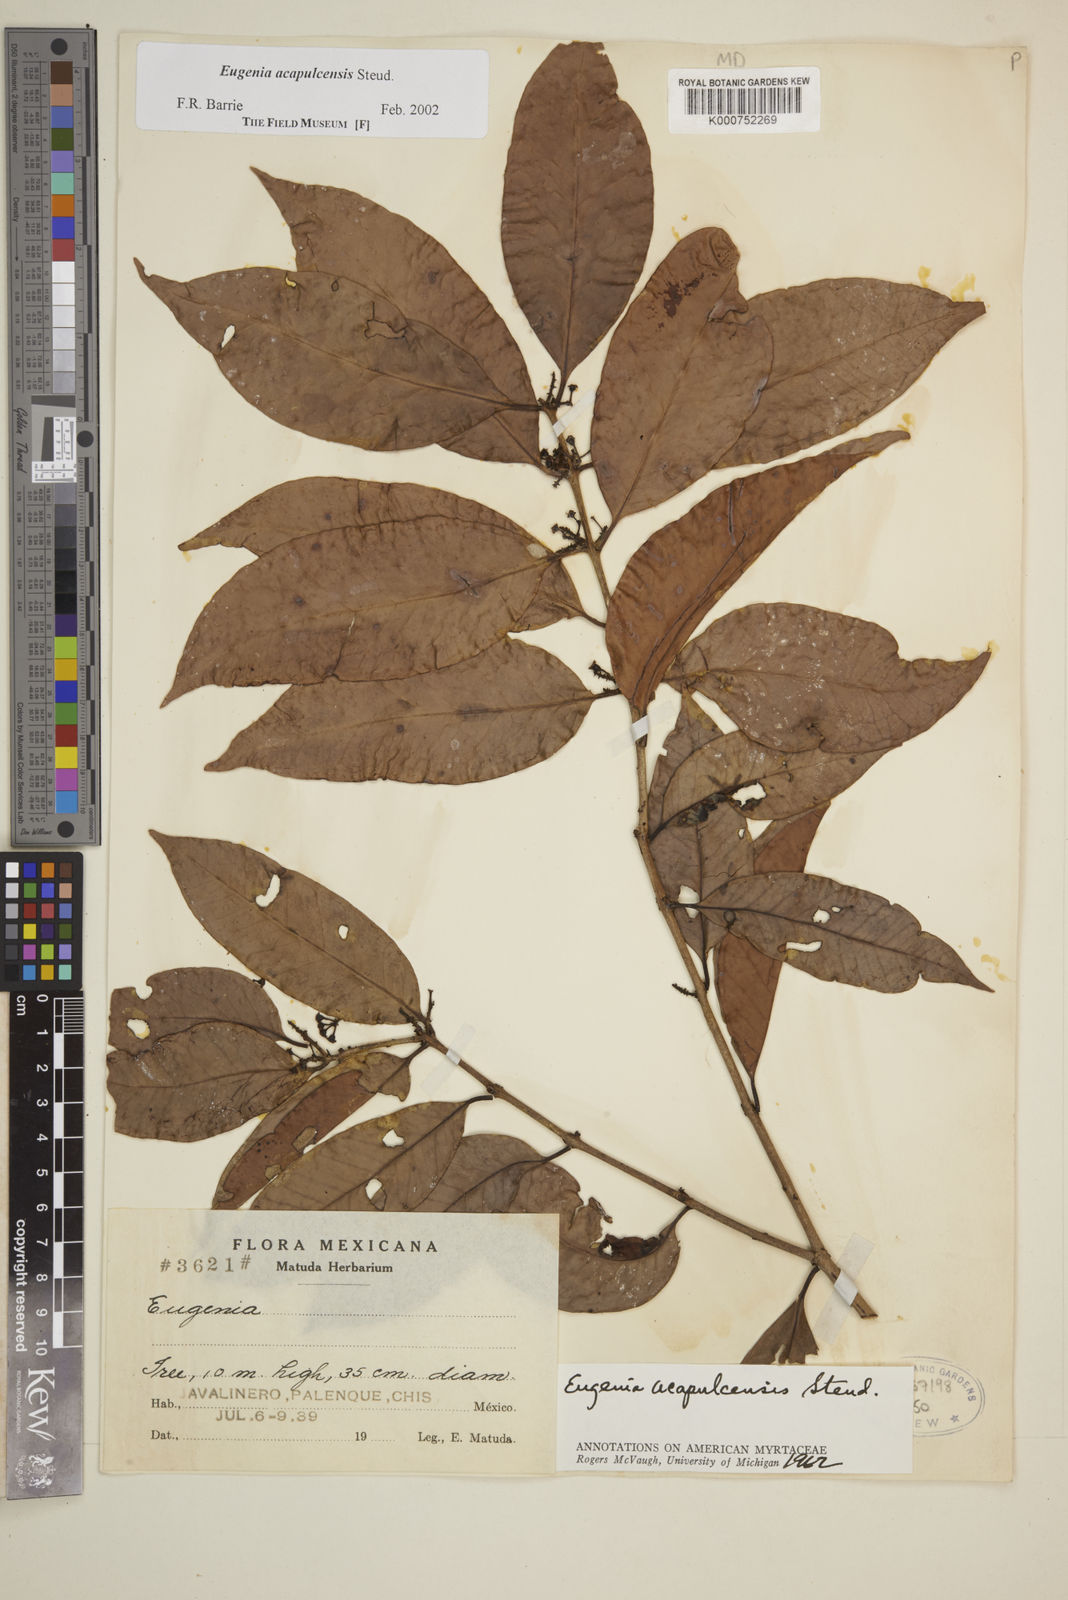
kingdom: Plantae
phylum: Tracheophyta
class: Magnoliopsida
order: Myrtales
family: Myrtaceae
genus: Eugenia
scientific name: Eugenia acapulcensis
